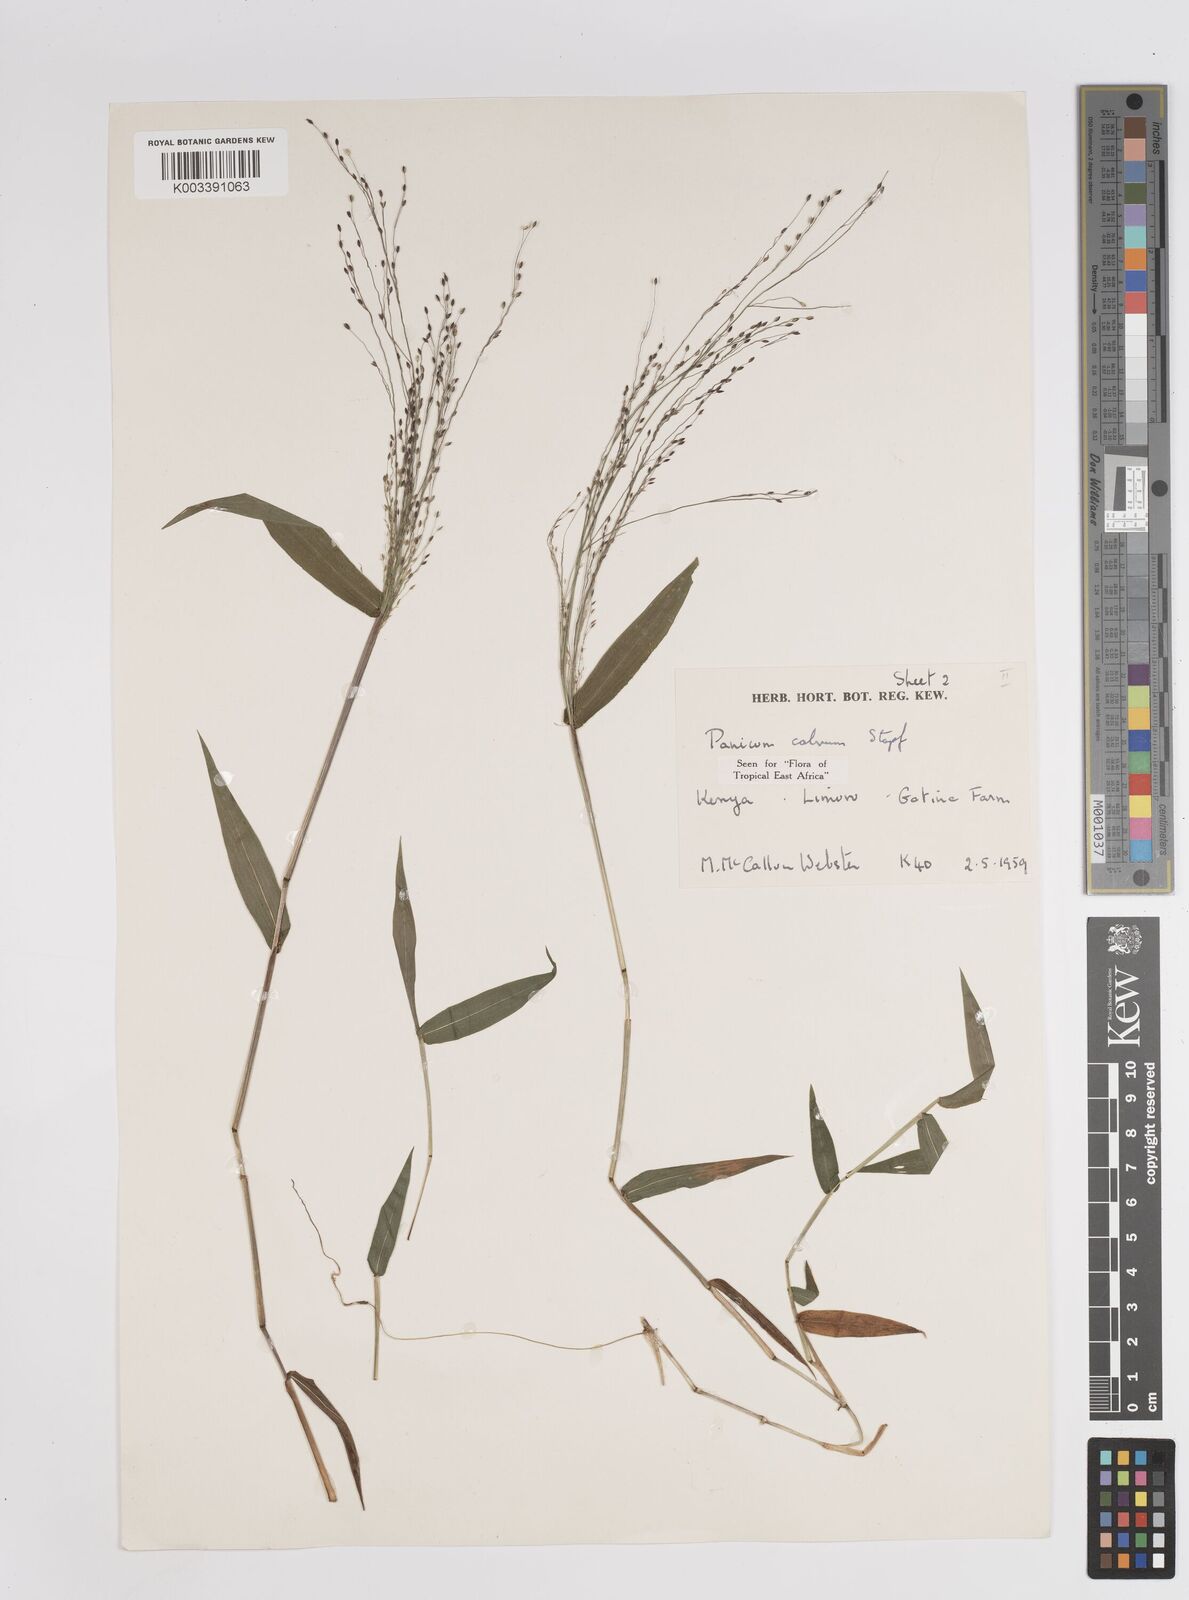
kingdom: Plantae
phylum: Tracheophyta
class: Liliopsida
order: Poales
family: Poaceae
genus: Panicum
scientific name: Panicum calvum
